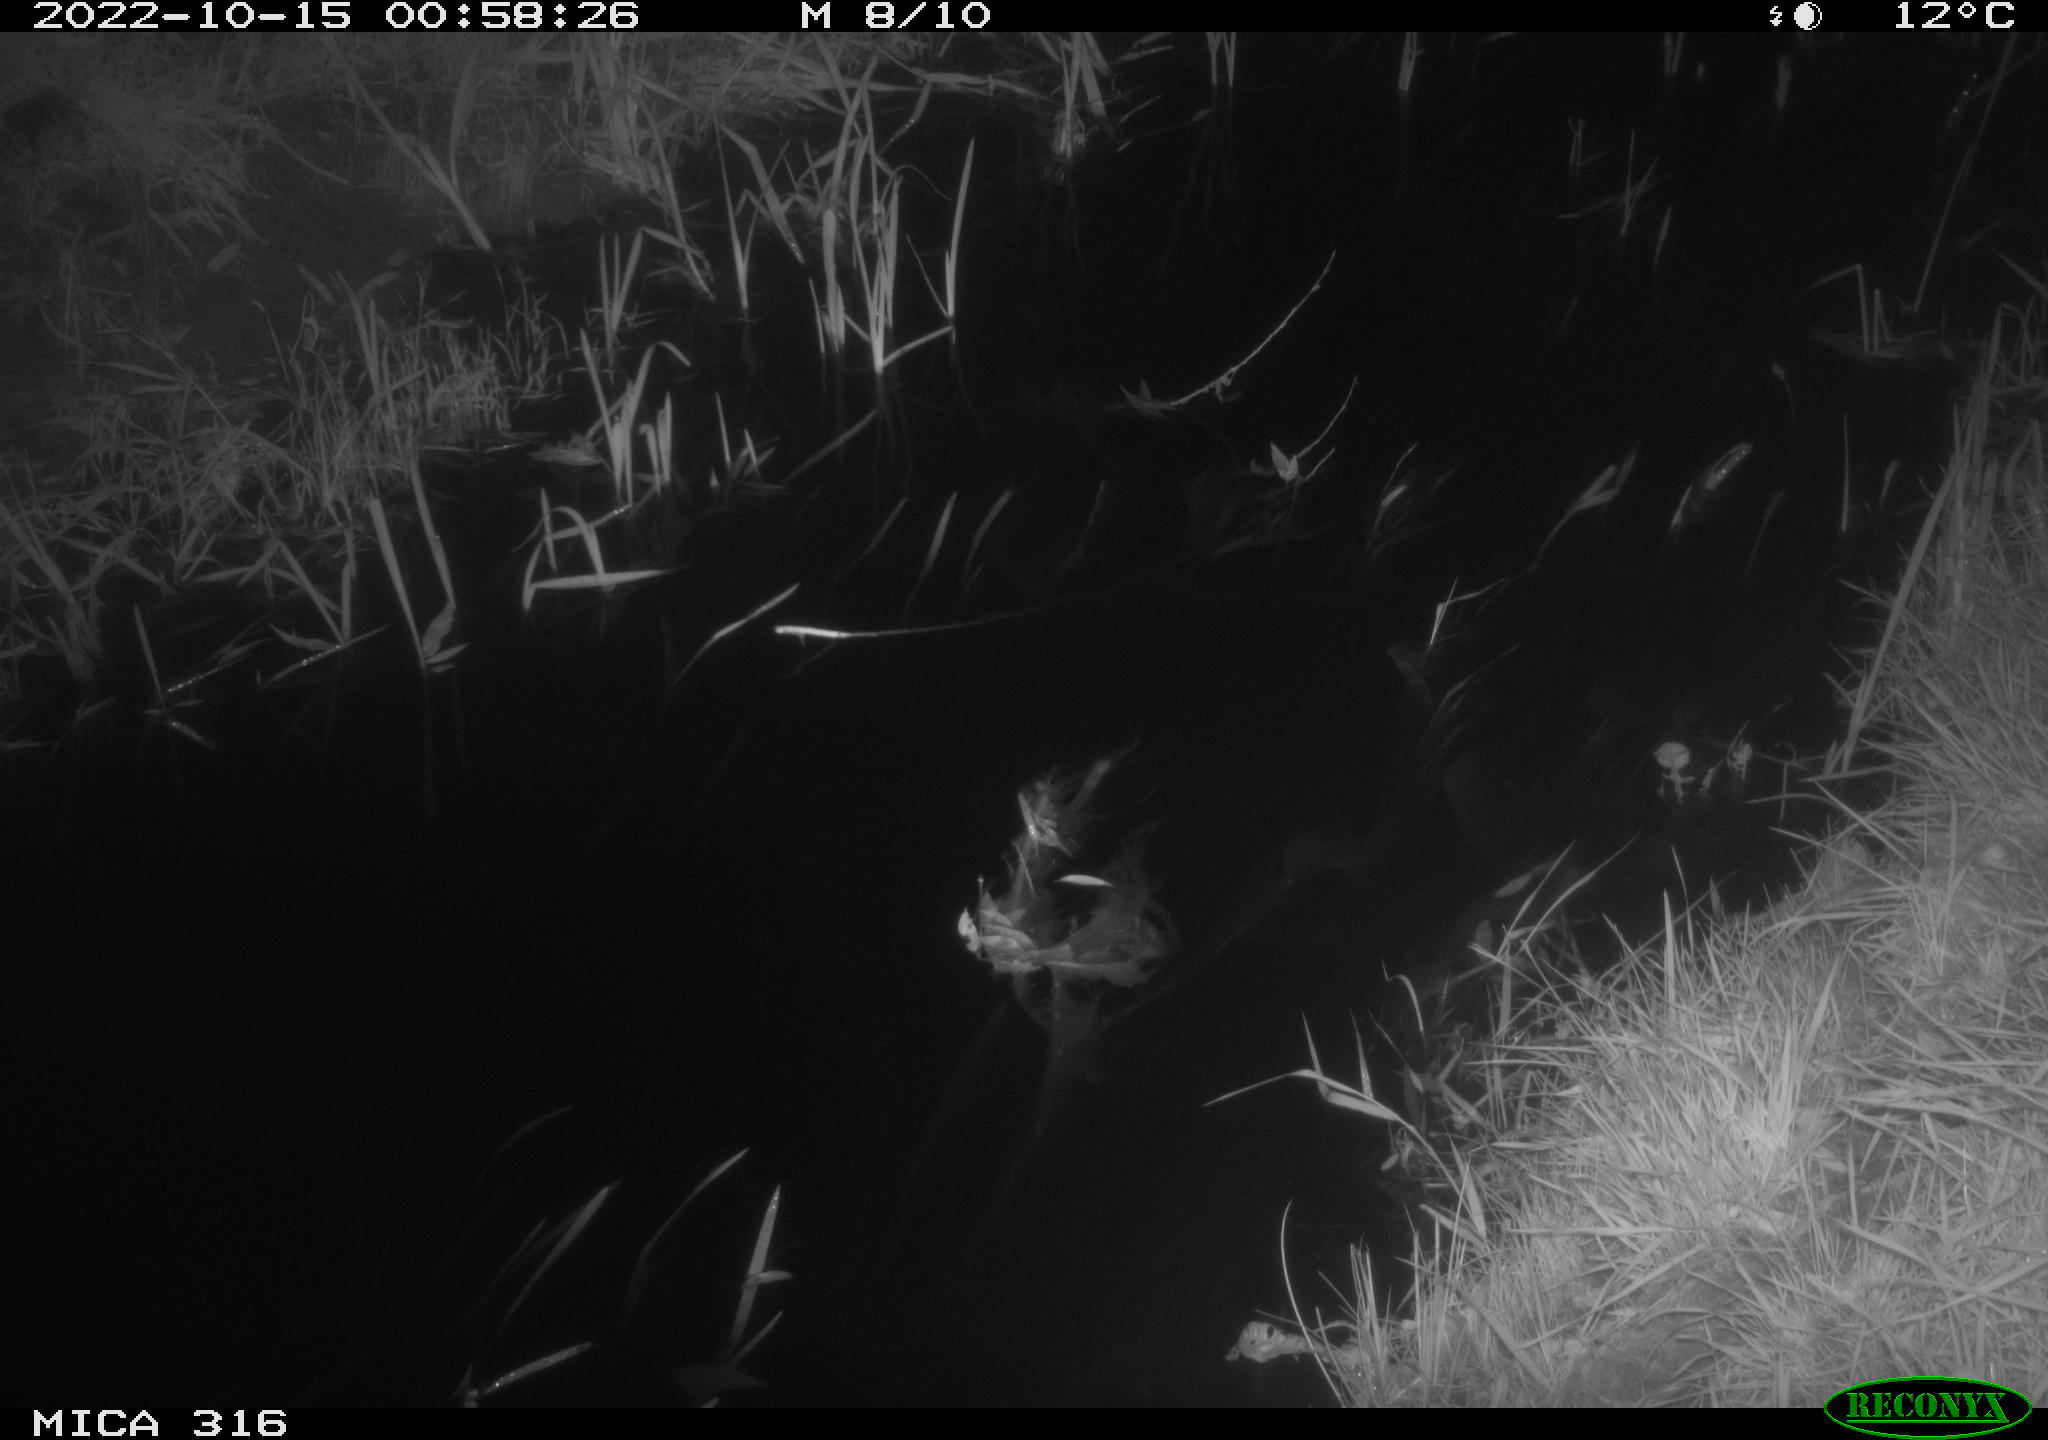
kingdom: Animalia
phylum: Chordata
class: Mammalia
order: Rodentia
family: Muridae
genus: Rattus
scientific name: Rattus norvegicus
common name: Brown rat
